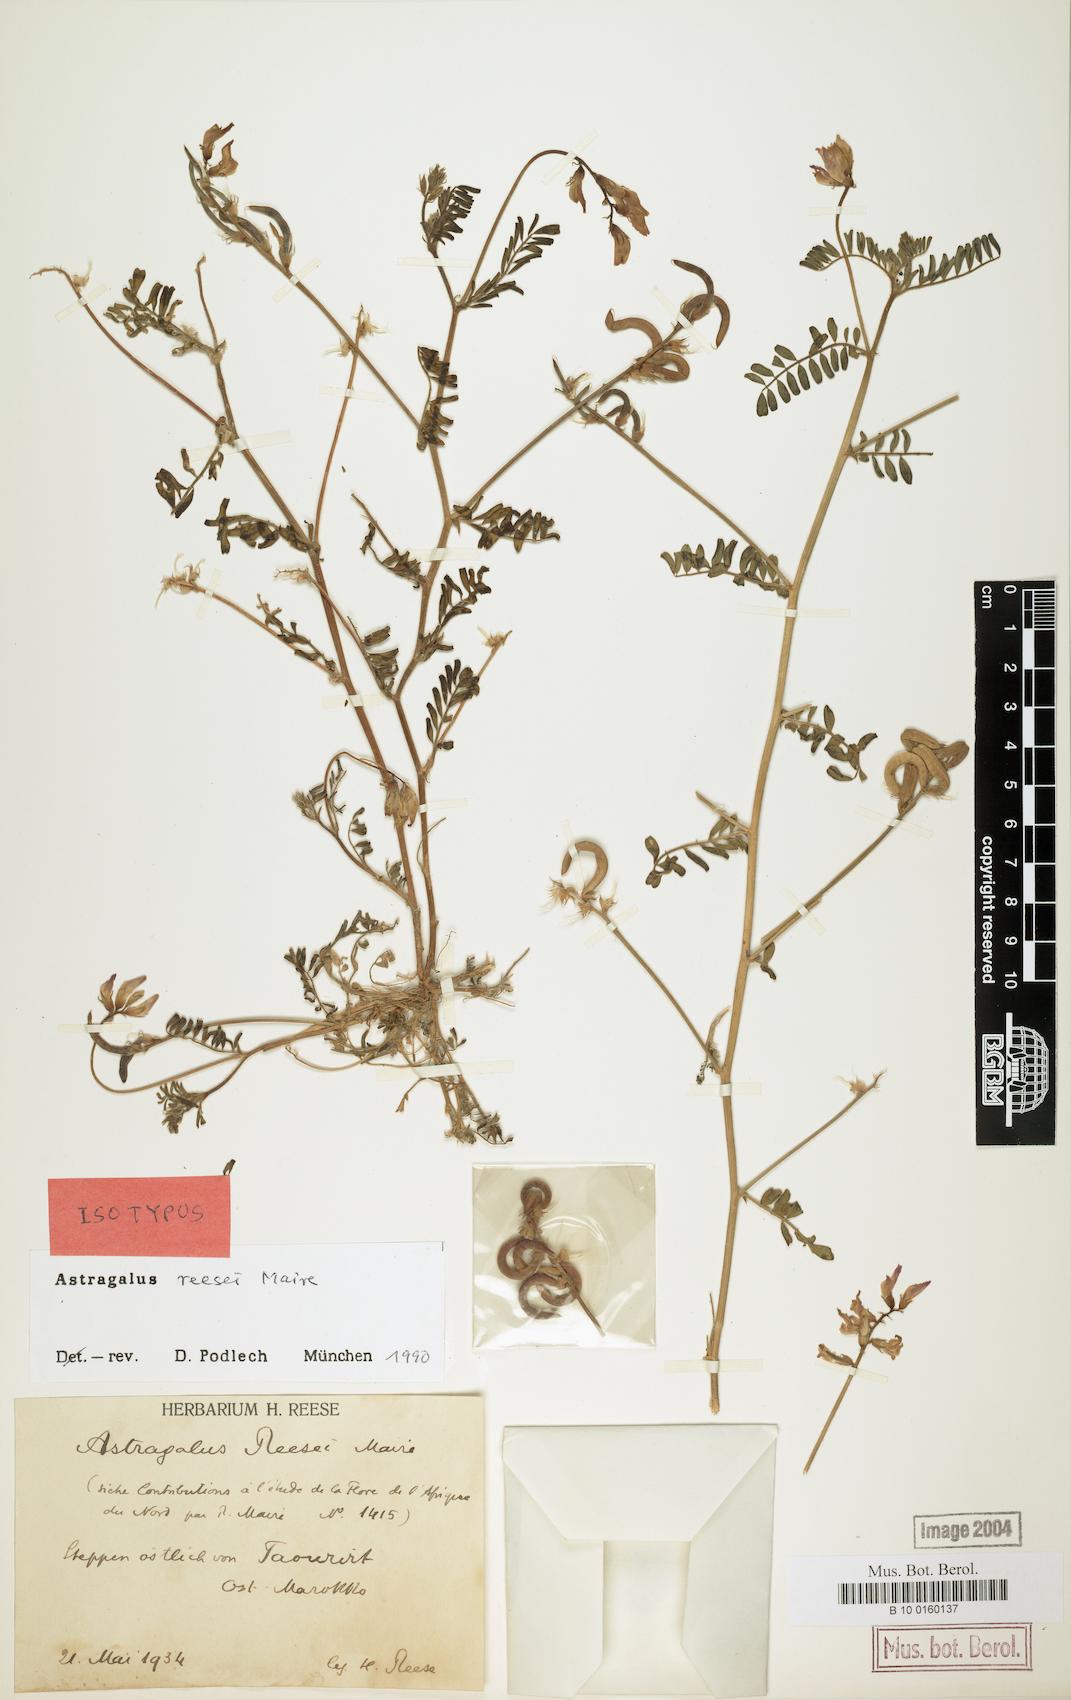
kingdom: Plantae
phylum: Tracheophyta
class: Magnoliopsida
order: Fabales
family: Fabaceae
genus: Astragalus
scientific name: Astragalus reesei
